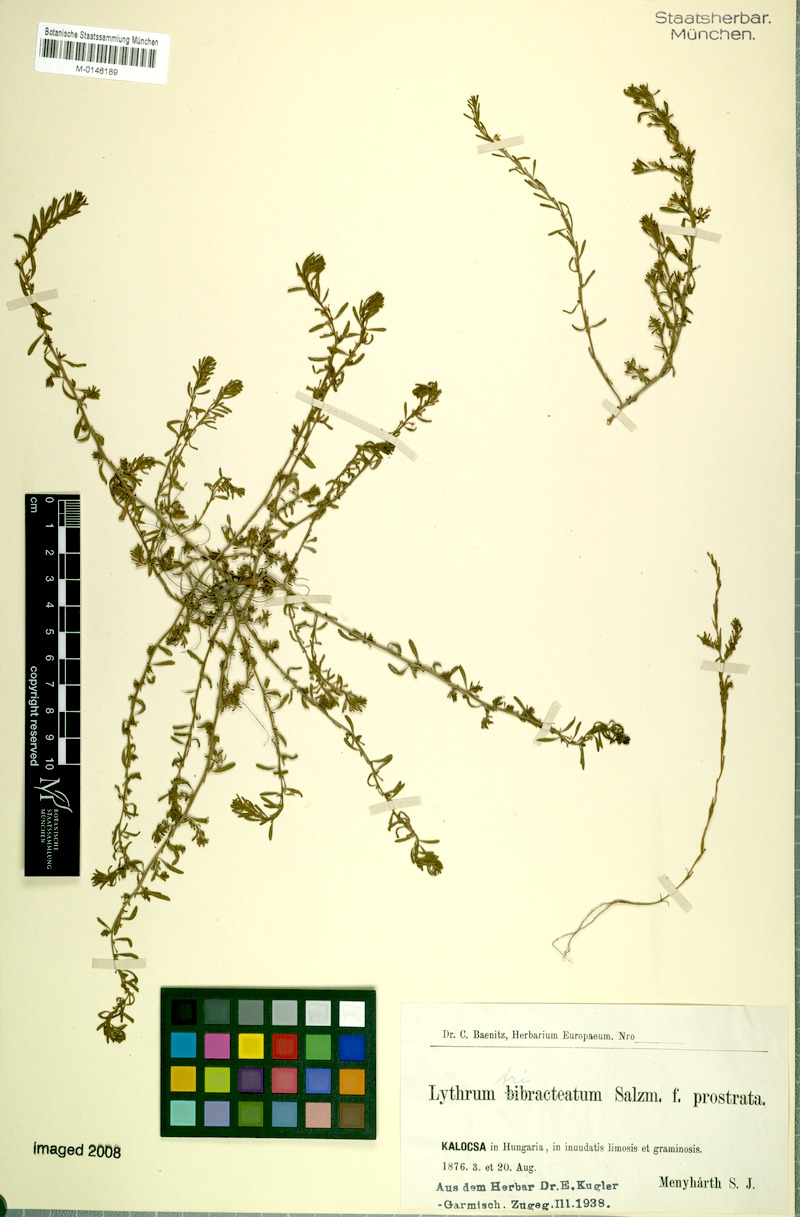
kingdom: Plantae
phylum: Tracheophyta
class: Magnoliopsida
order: Myrtales
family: Lythraceae
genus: Lythrum
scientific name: Lythrum tribracteatum
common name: Threebract loosestrife
